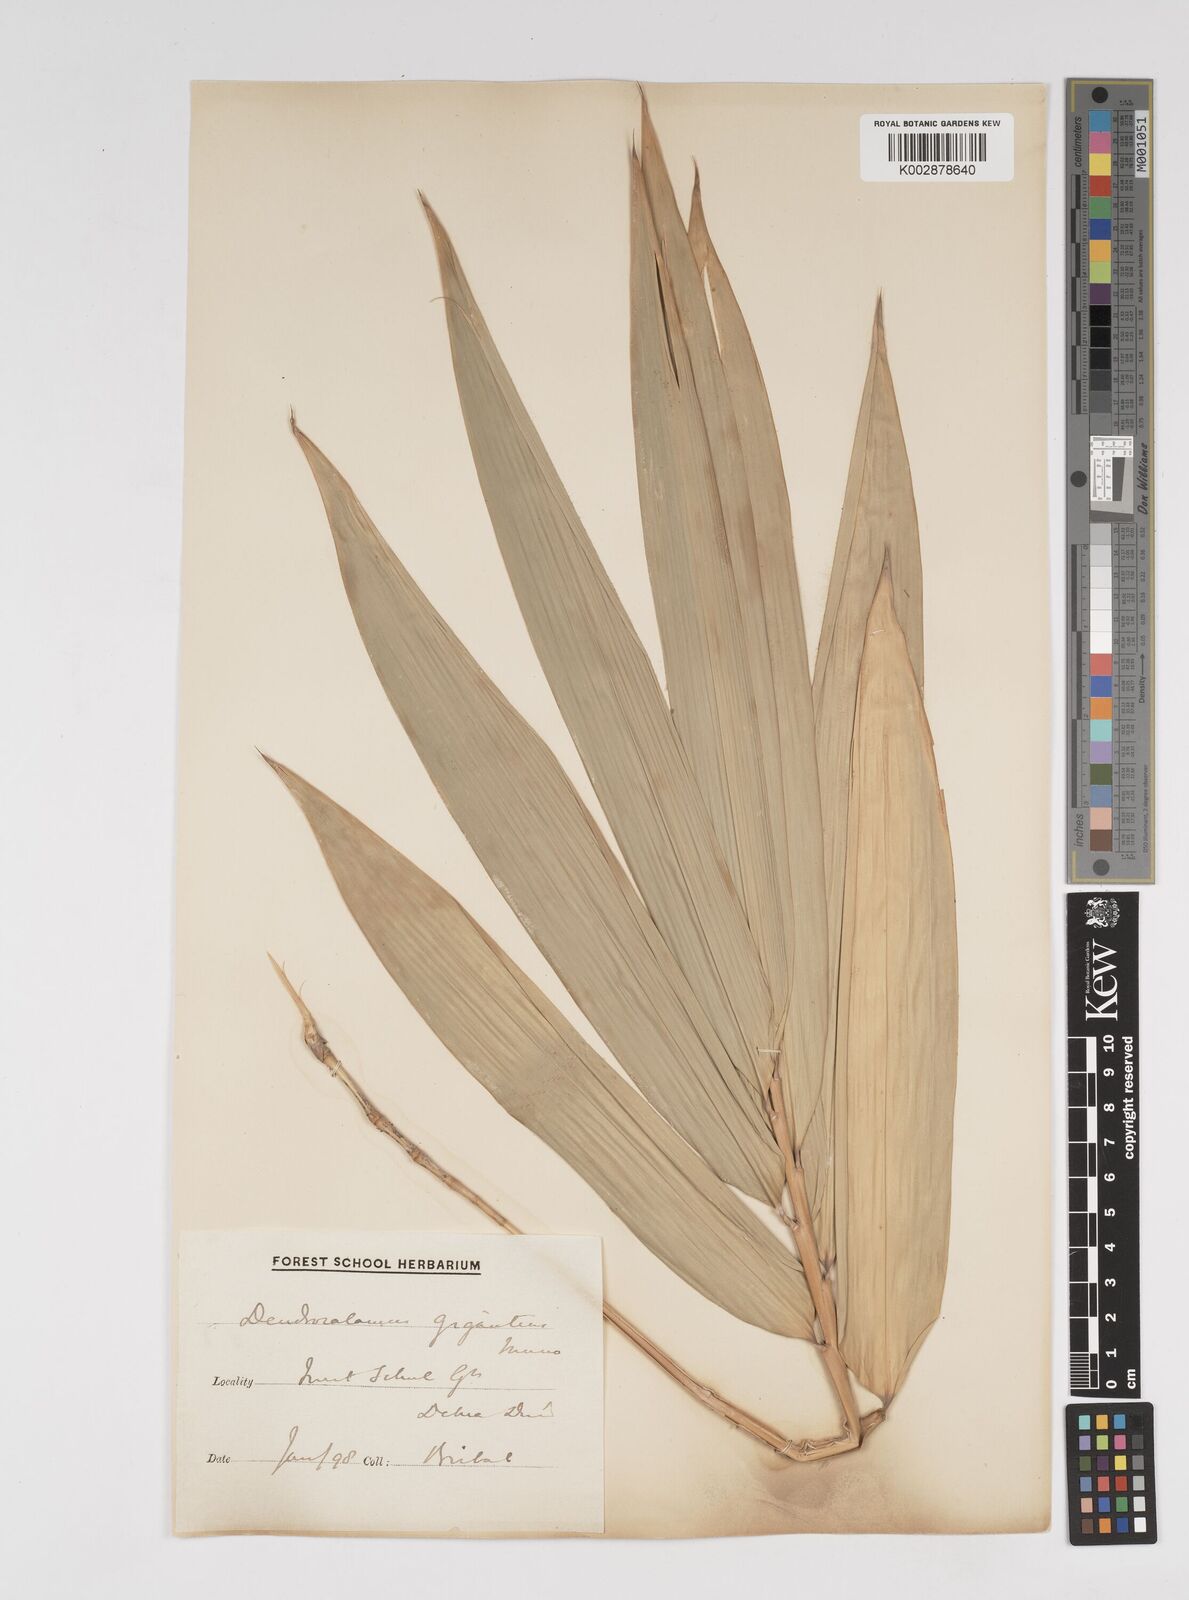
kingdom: Plantae
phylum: Tracheophyta
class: Liliopsida
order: Poales
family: Poaceae
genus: Dendrocalamus
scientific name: Dendrocalamus giganteus
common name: Giant bamboo
